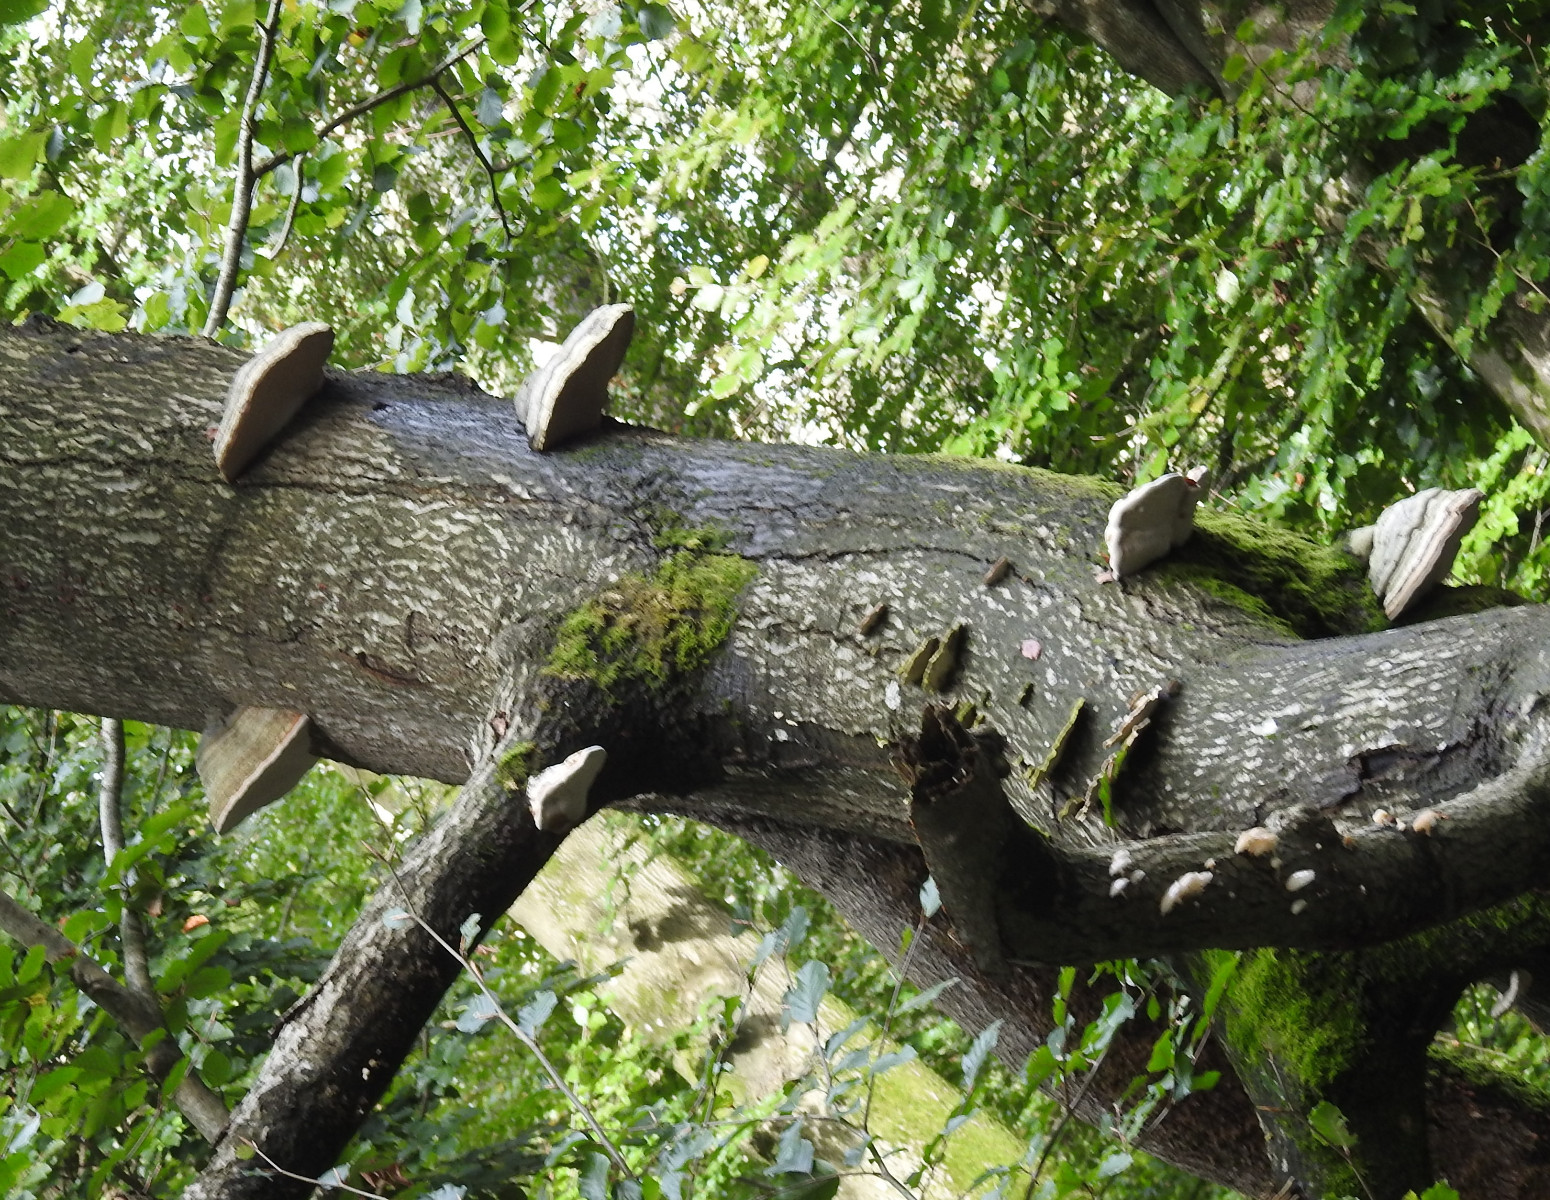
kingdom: Fungi
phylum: Basidiomycota
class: Agaricomycetes
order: Polyporales
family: Polyporaceae
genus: Fomes
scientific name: Fomes fomentarius
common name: tøndersvamp
